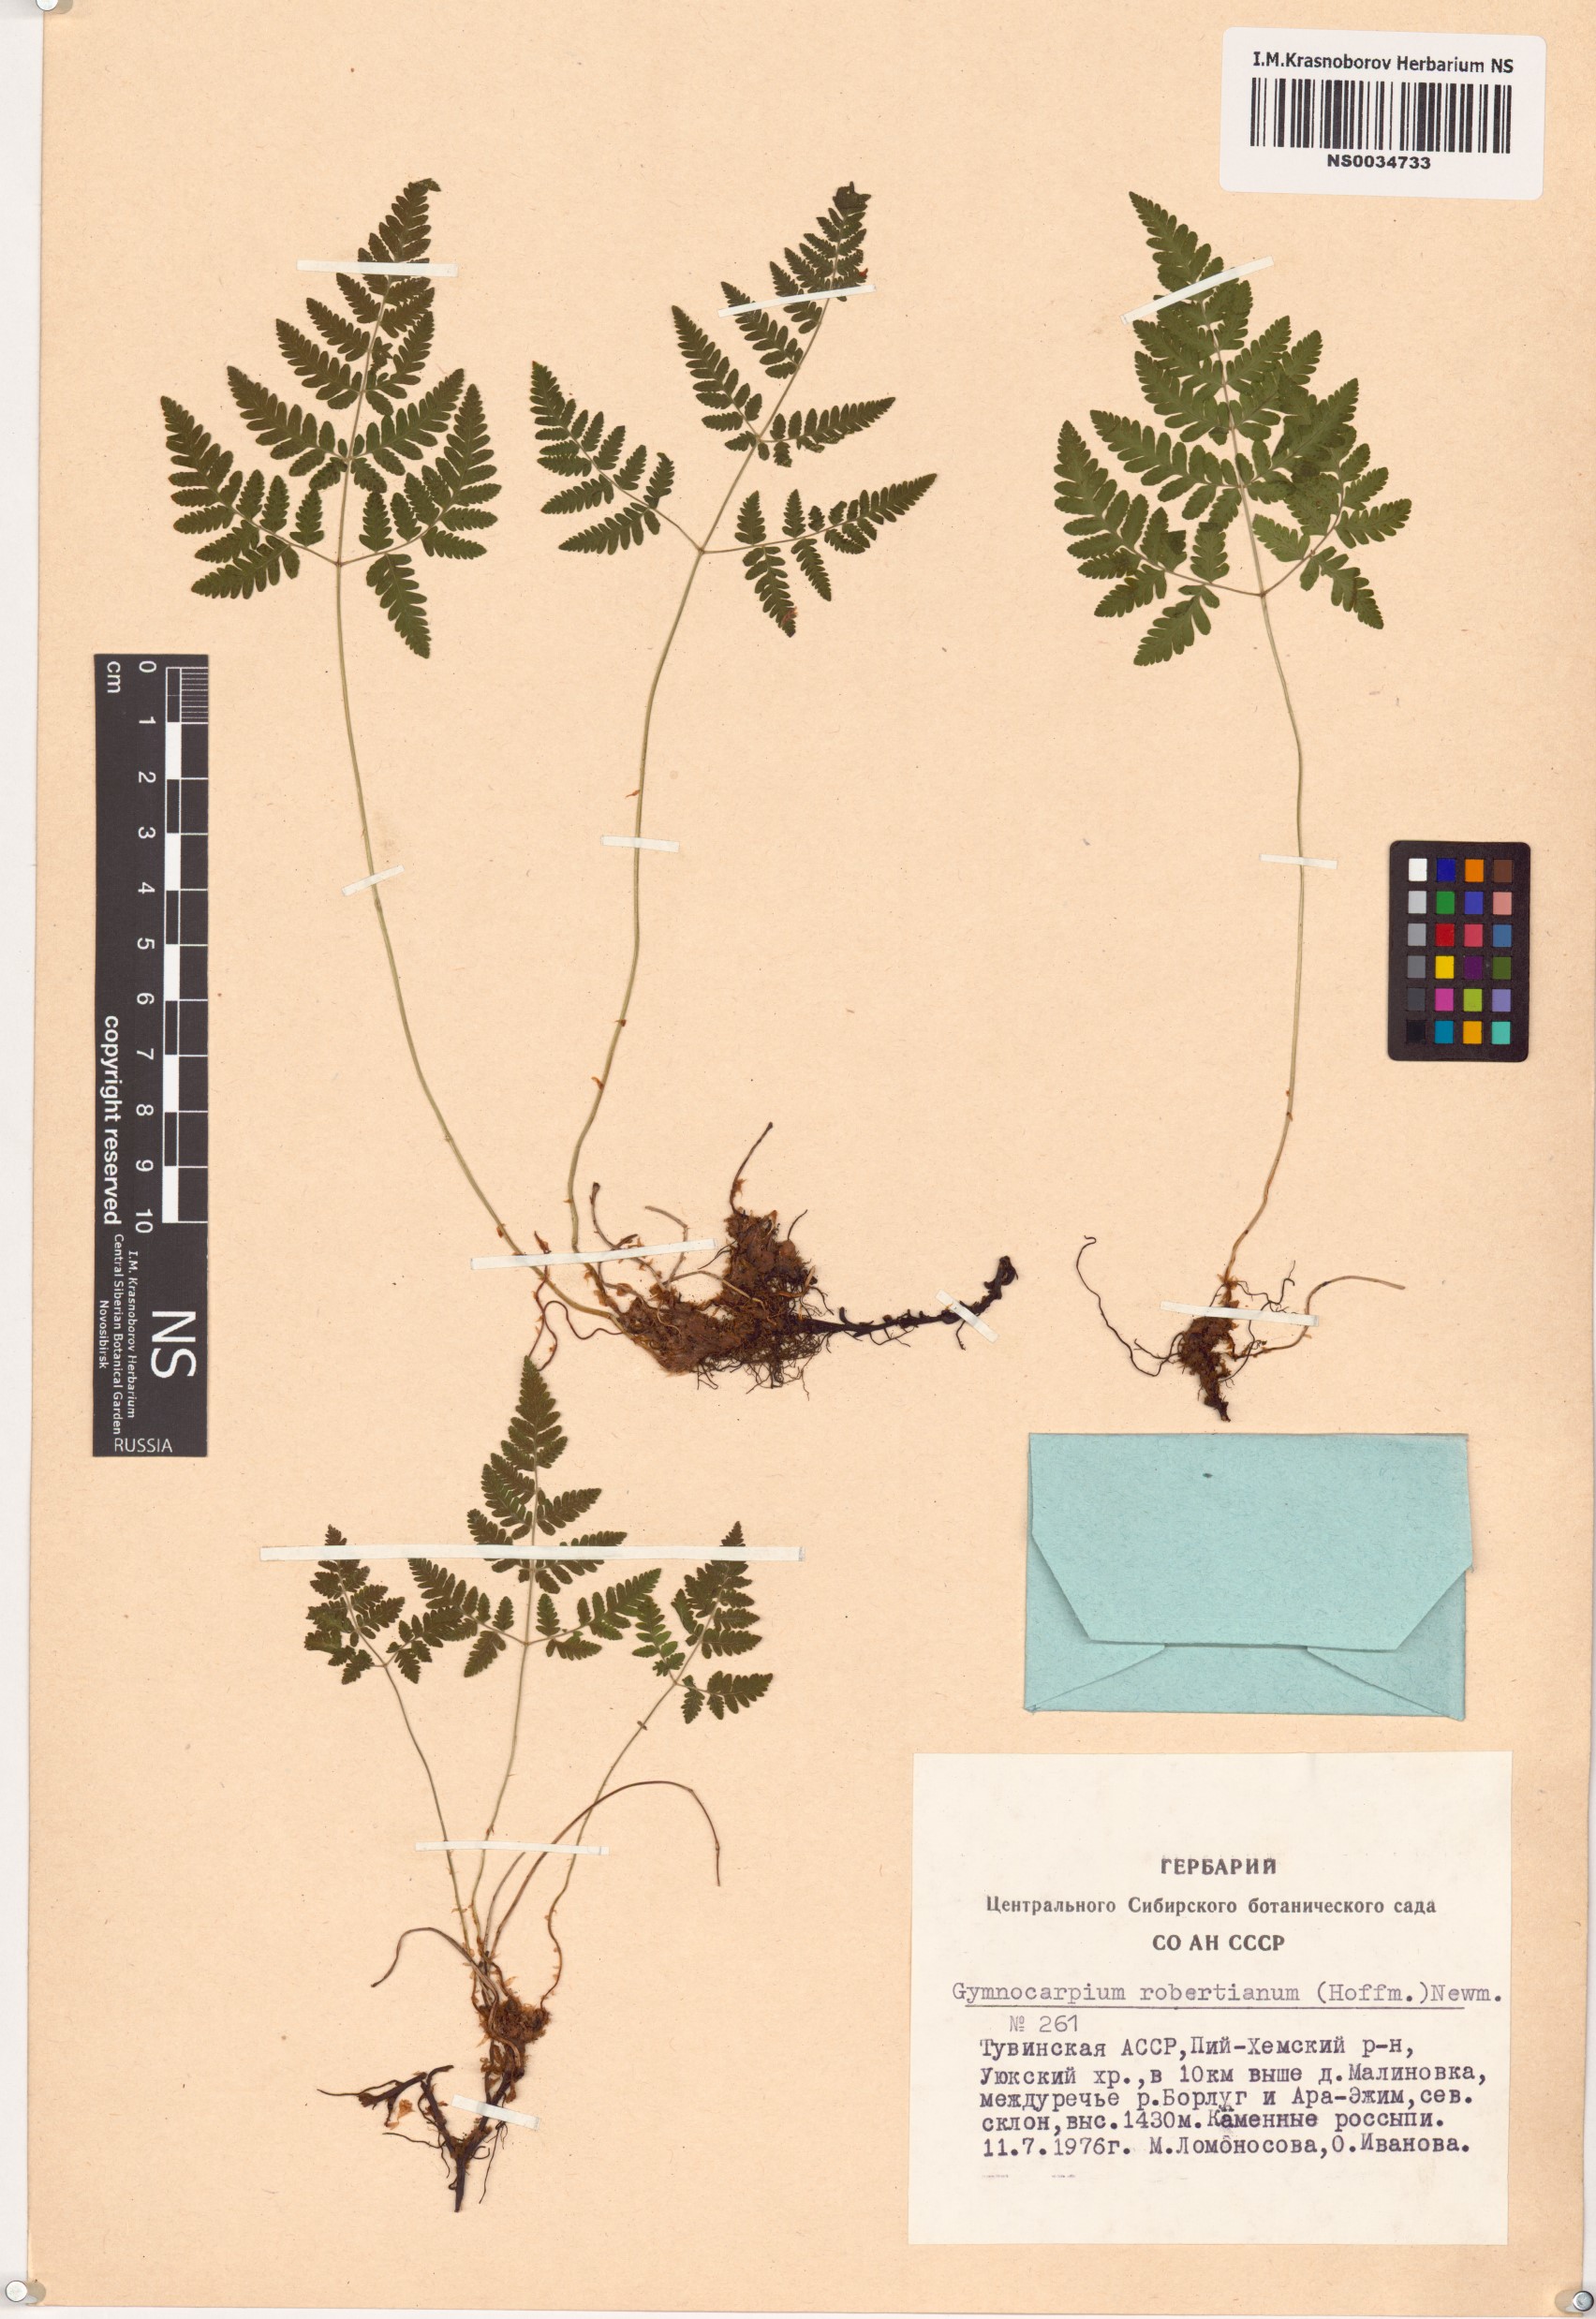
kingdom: Plantae
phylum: Tracheophyta
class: Polypodiopsida
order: Polypodiales
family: Cystopteridaceae
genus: Gymnocarpium
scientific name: Gymnocarpium robertianum
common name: Limestone fern
